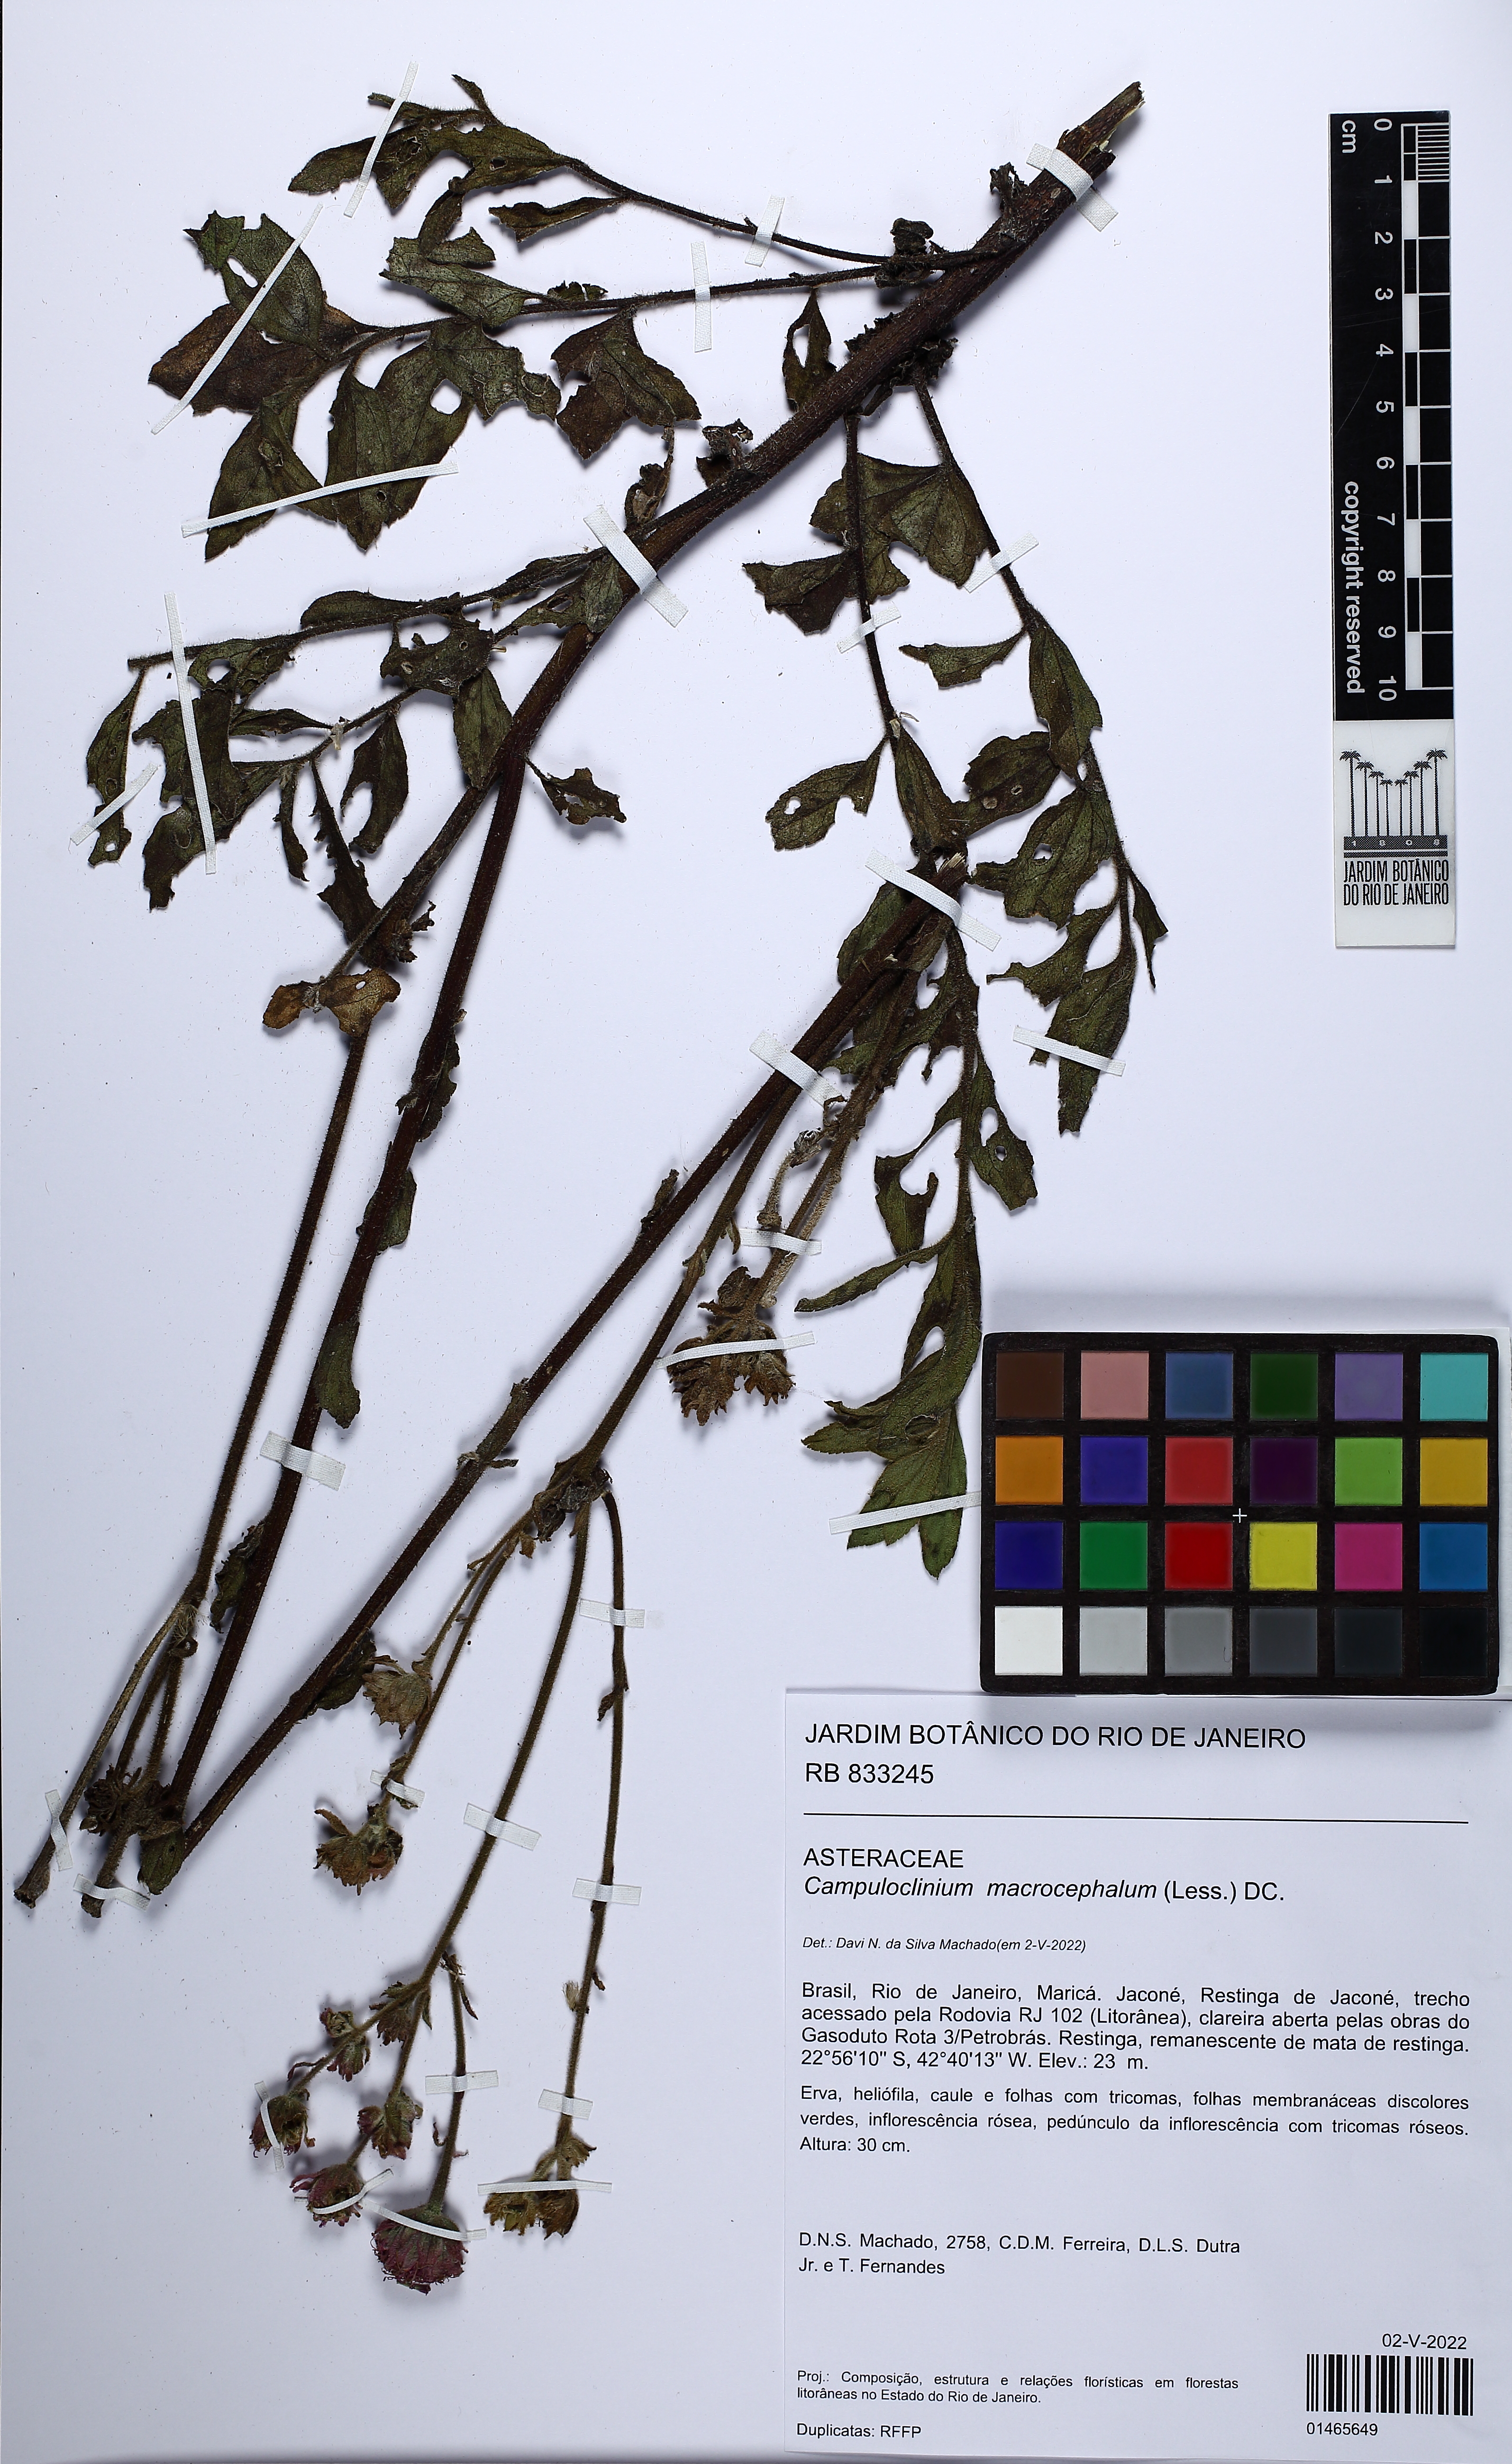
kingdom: Plantae
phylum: Tracheophyta
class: Magnoliopsida
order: Asterales
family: Asteraceae
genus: Campuloclinium
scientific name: Campuloclinium macrocephalum
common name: Pompomweed
